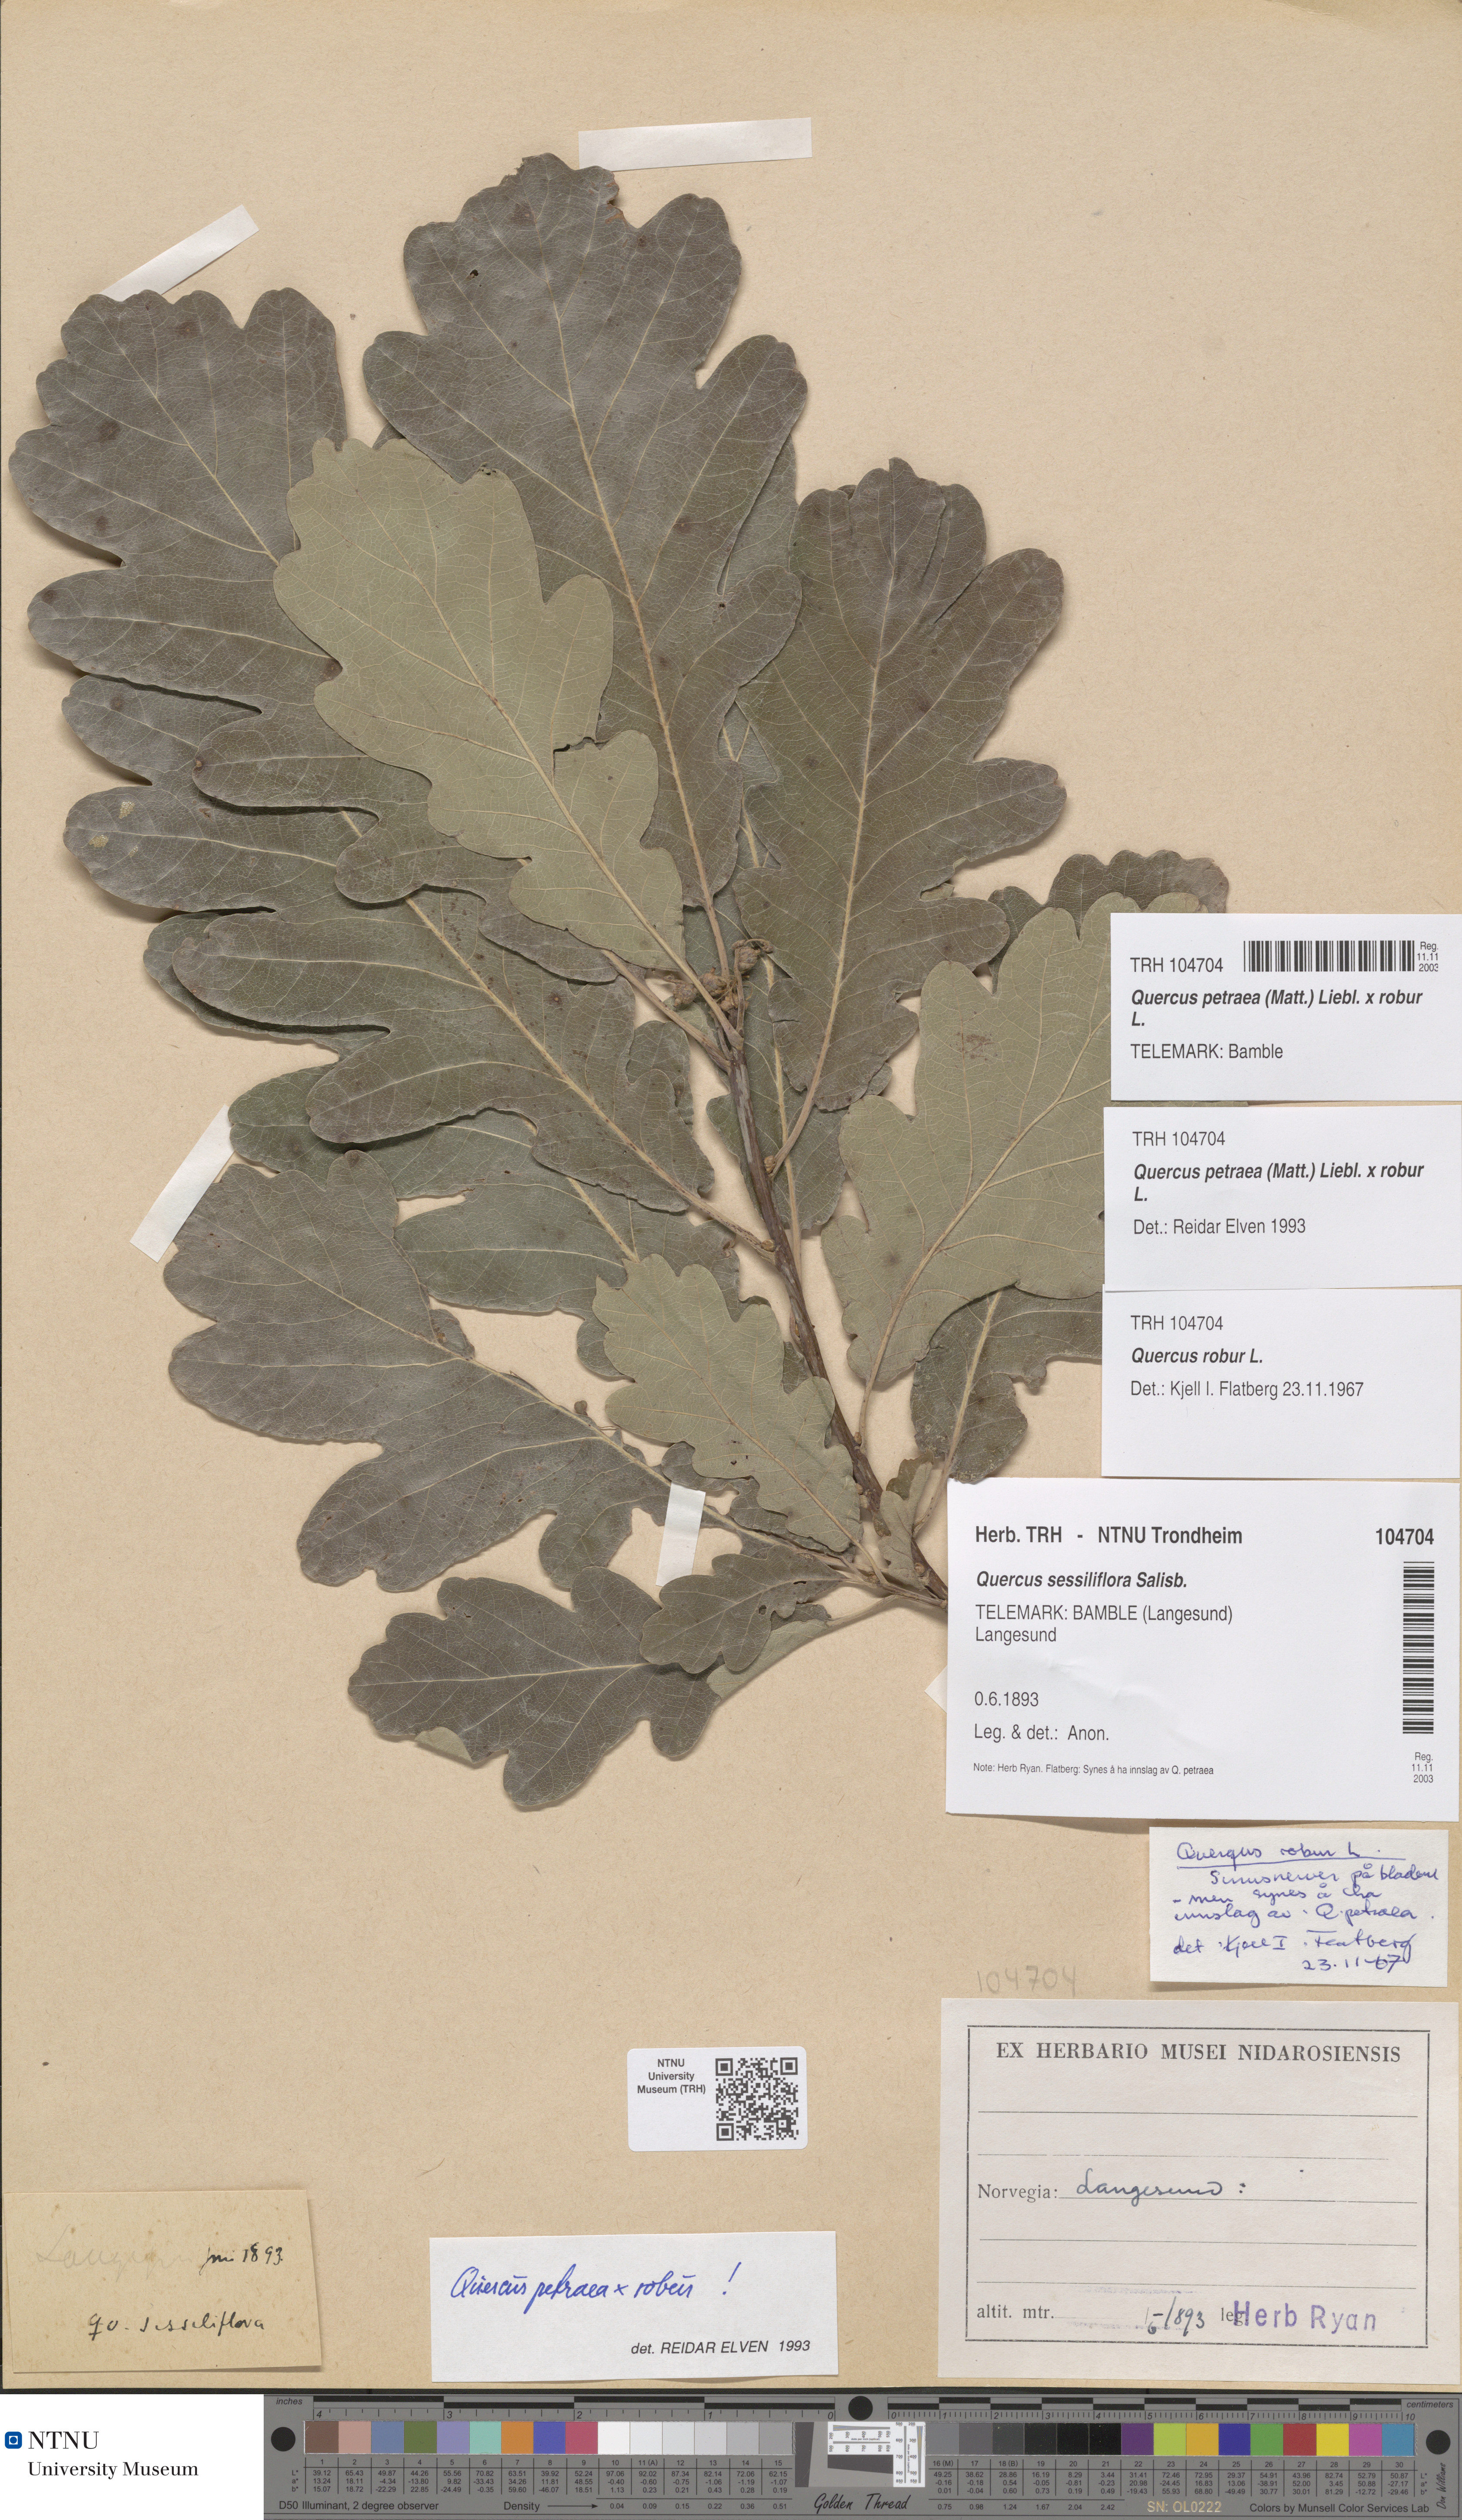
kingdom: Plantae
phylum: Tracheophyta
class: Magnoliopsida
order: Fagales
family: Fagaceae
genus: Quercus
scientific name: Quercus rosacea
